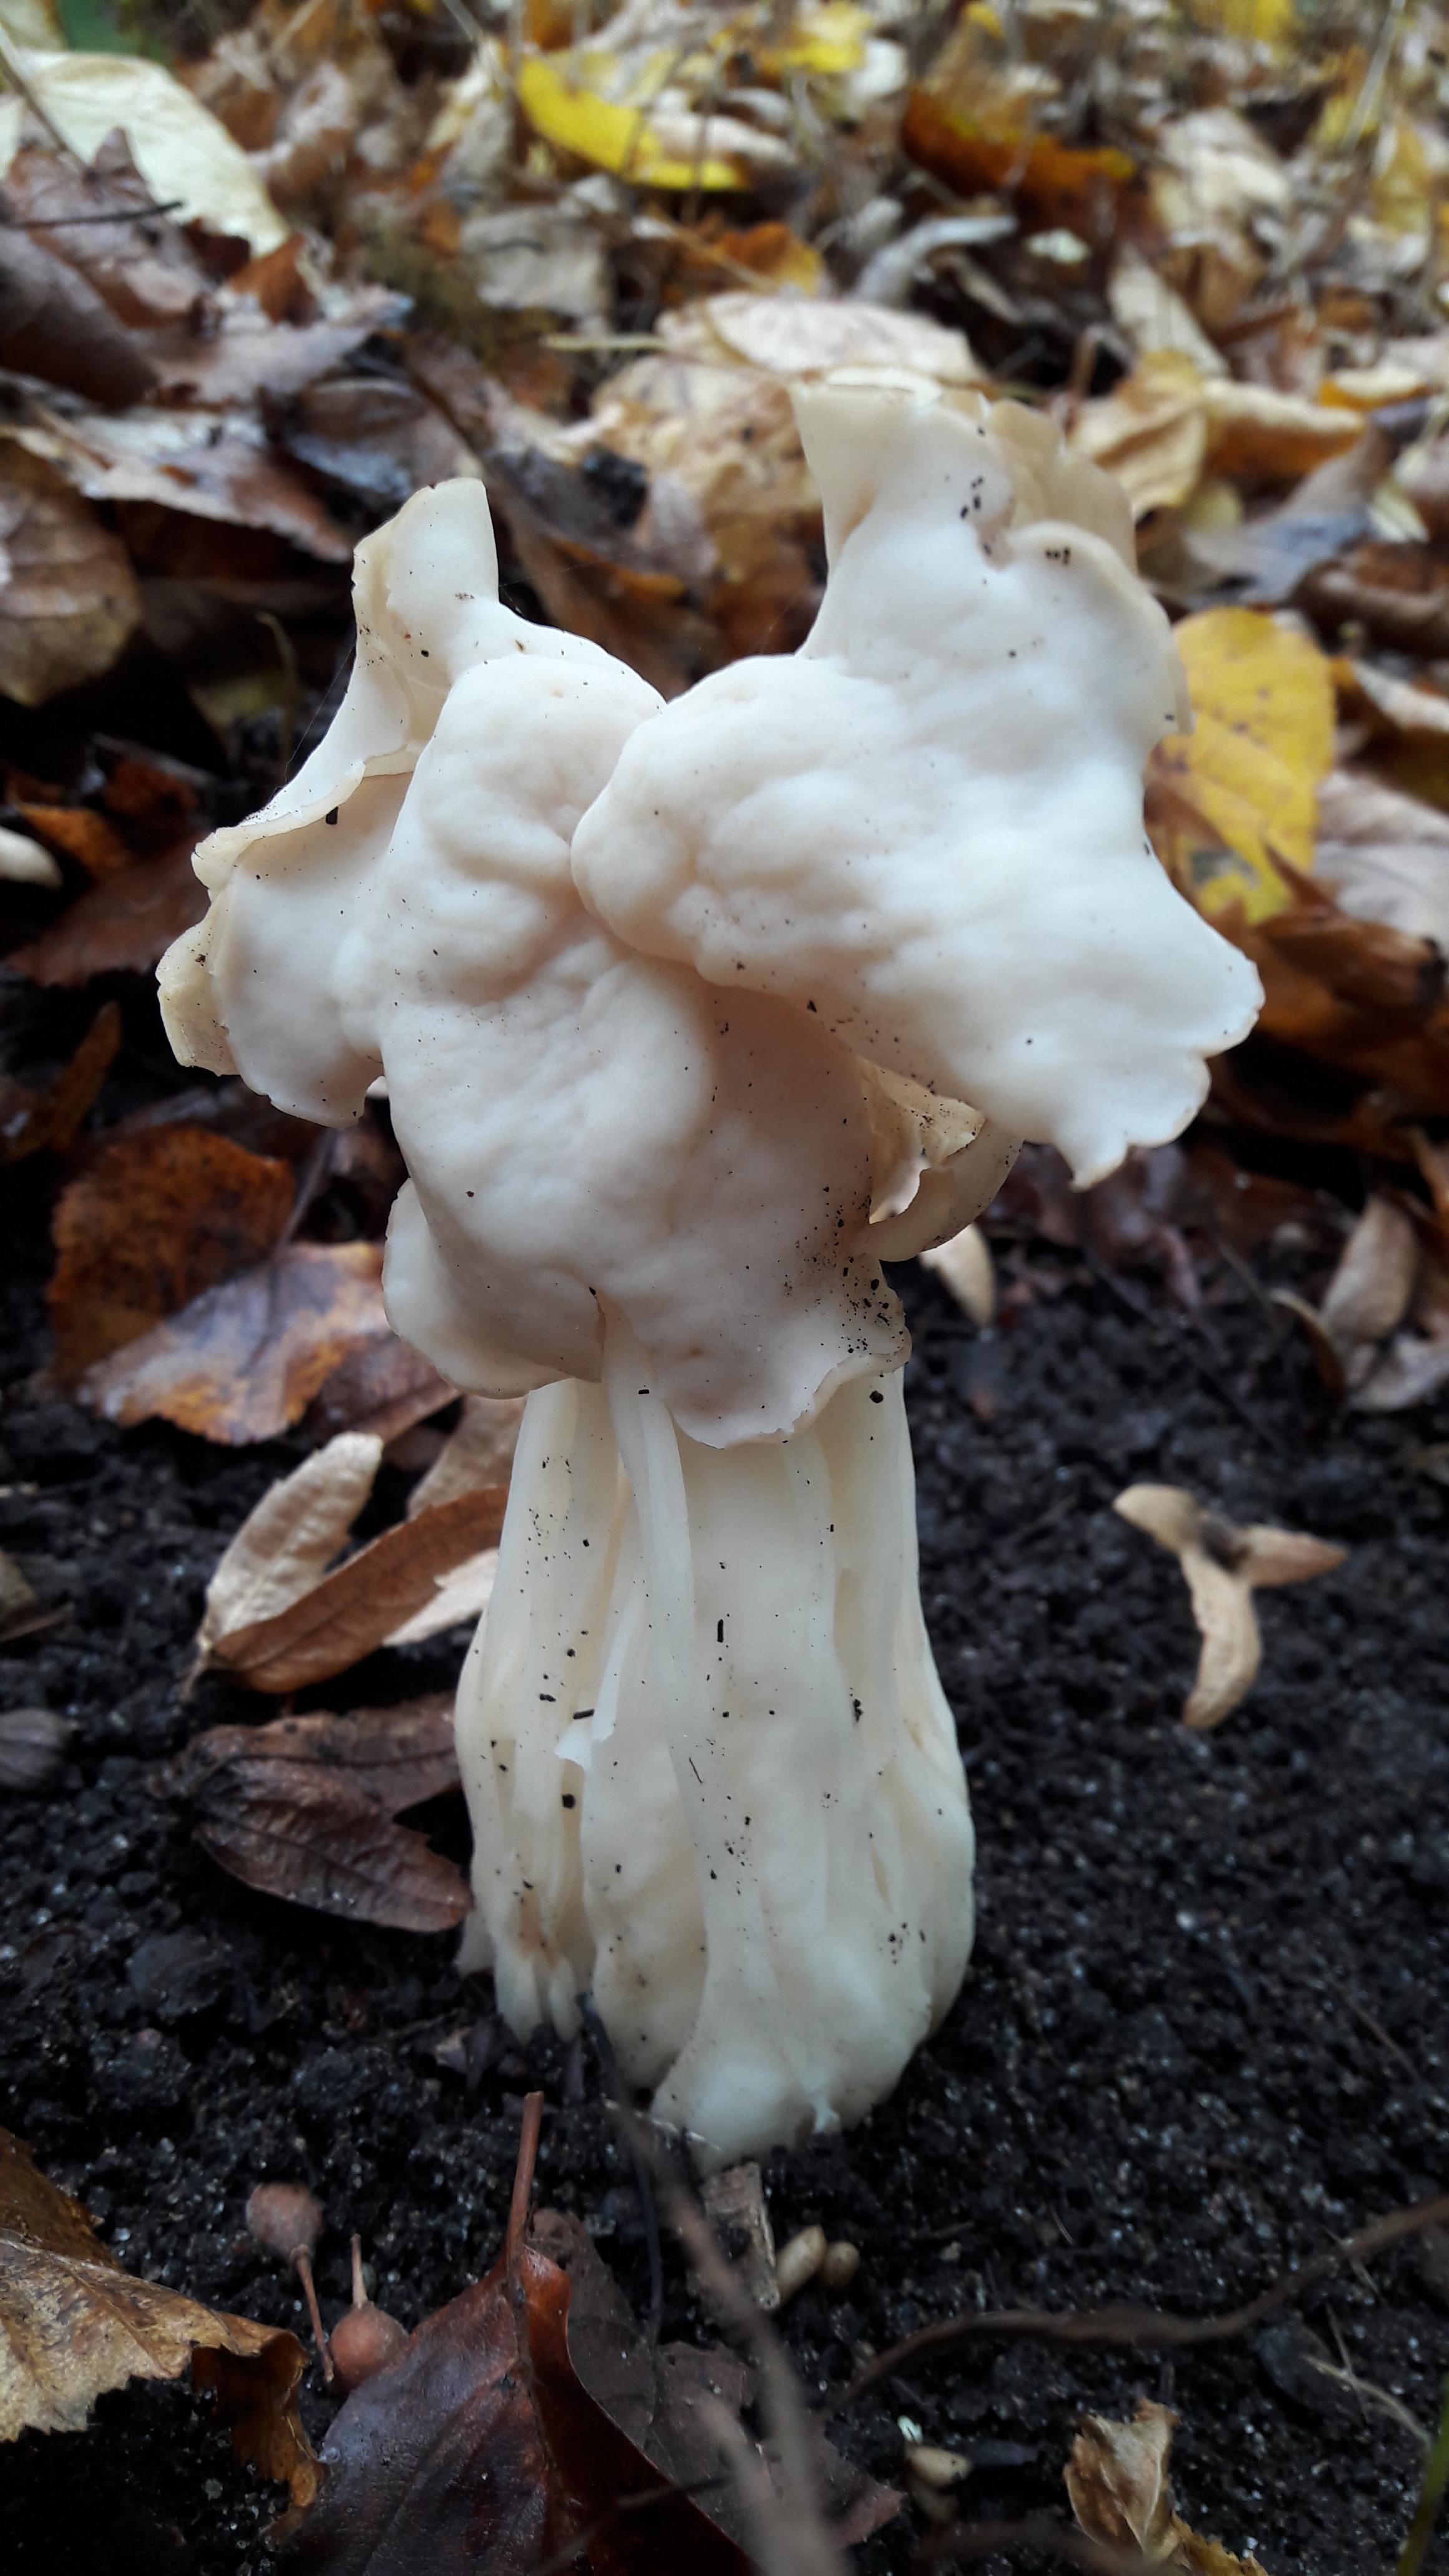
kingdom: Fungi
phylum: Ascomycota
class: Pezizomycetes
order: Pezizales
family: Helvellaceae
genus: Helvella
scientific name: Helvella crispa
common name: kruset foldhat
